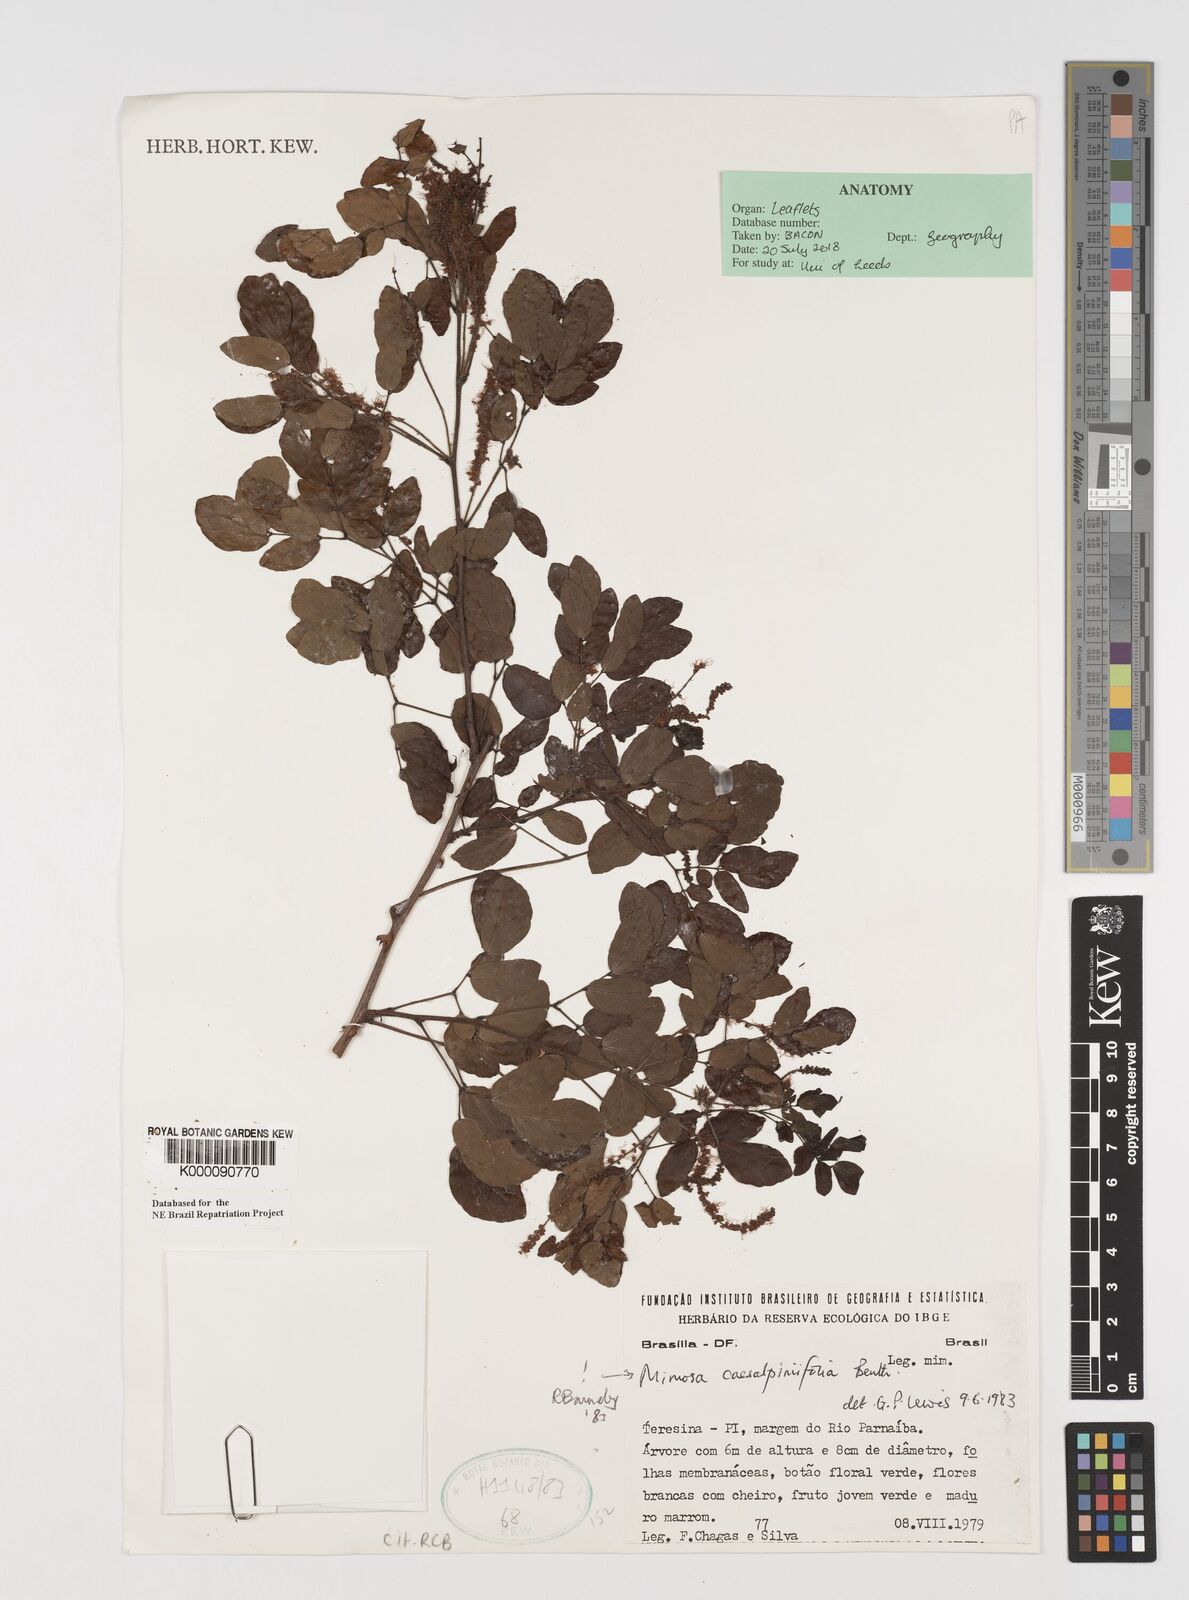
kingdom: Plantae
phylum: Tracheophyta
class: Magnoliopsida
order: Fabales
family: Fabaceae
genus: Mimosa
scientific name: Mimosa caesalpiniifolia
